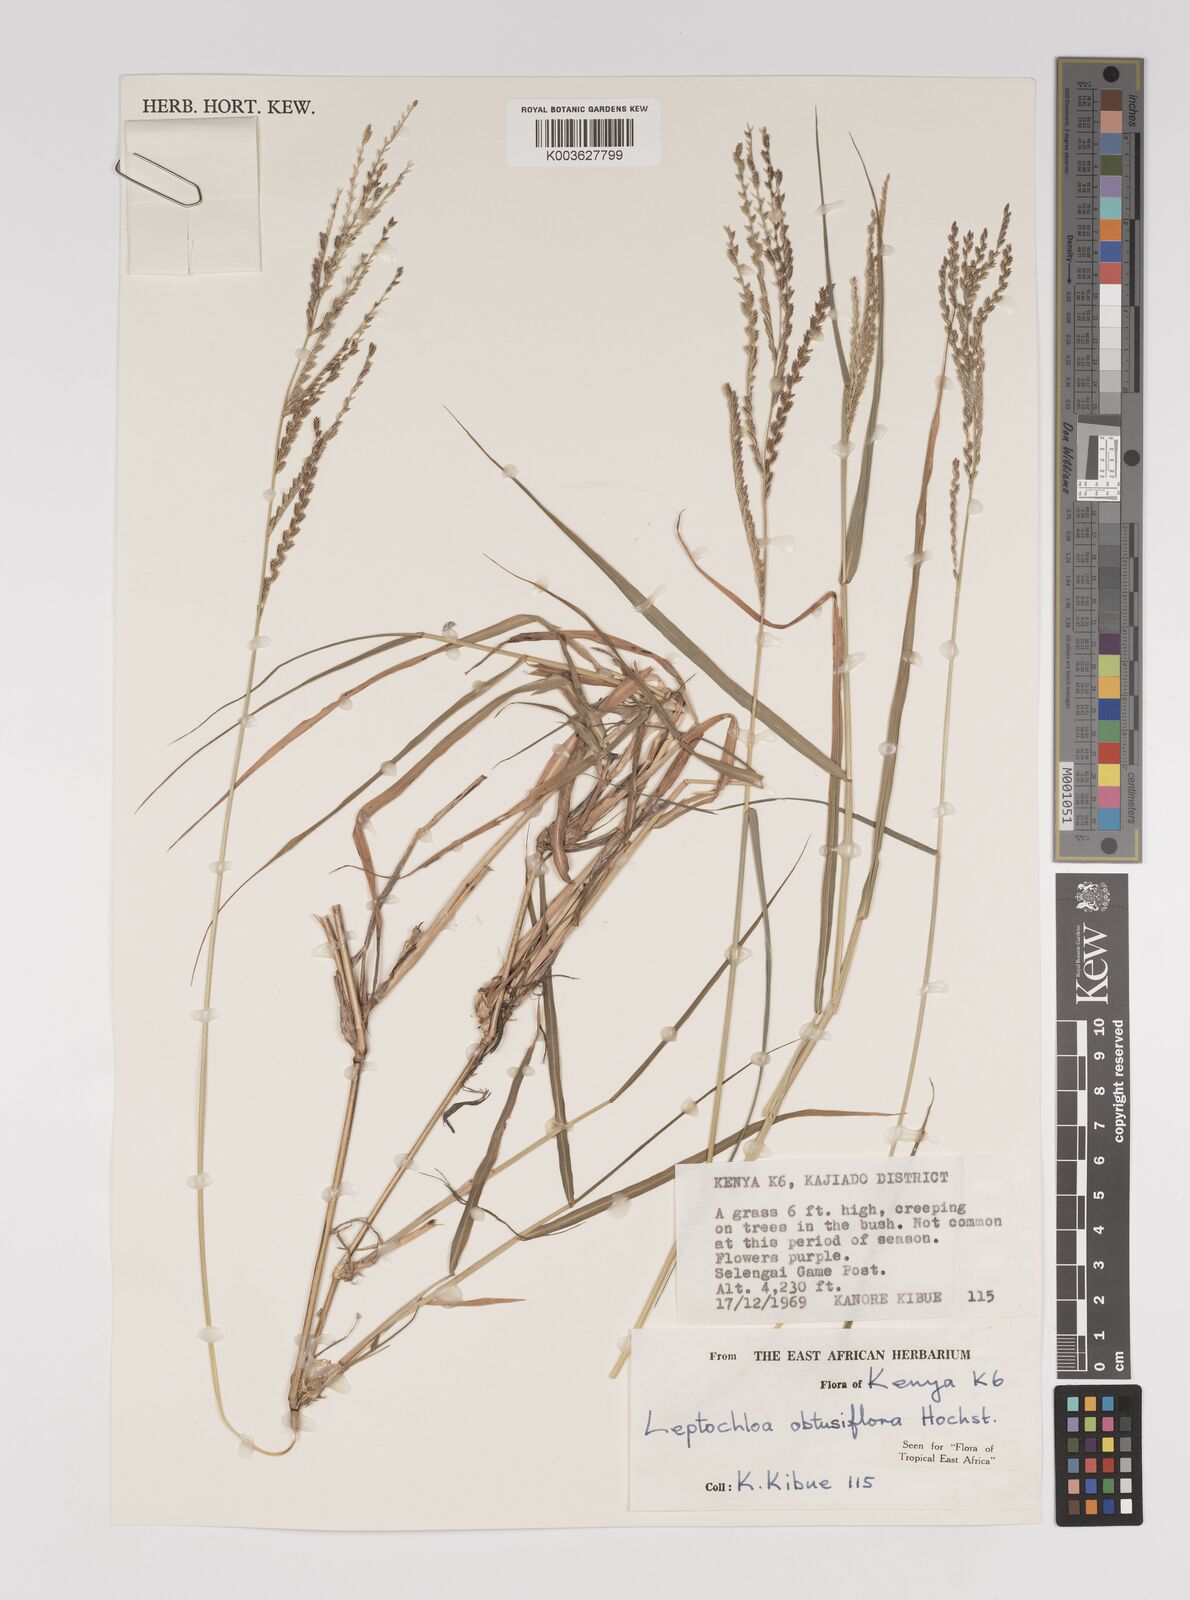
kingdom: Plantae
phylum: Tracheophyta
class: Liliopsida
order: Poales
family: Poaceae
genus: Disakisperma
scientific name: Disakisperma obtusiflorum
